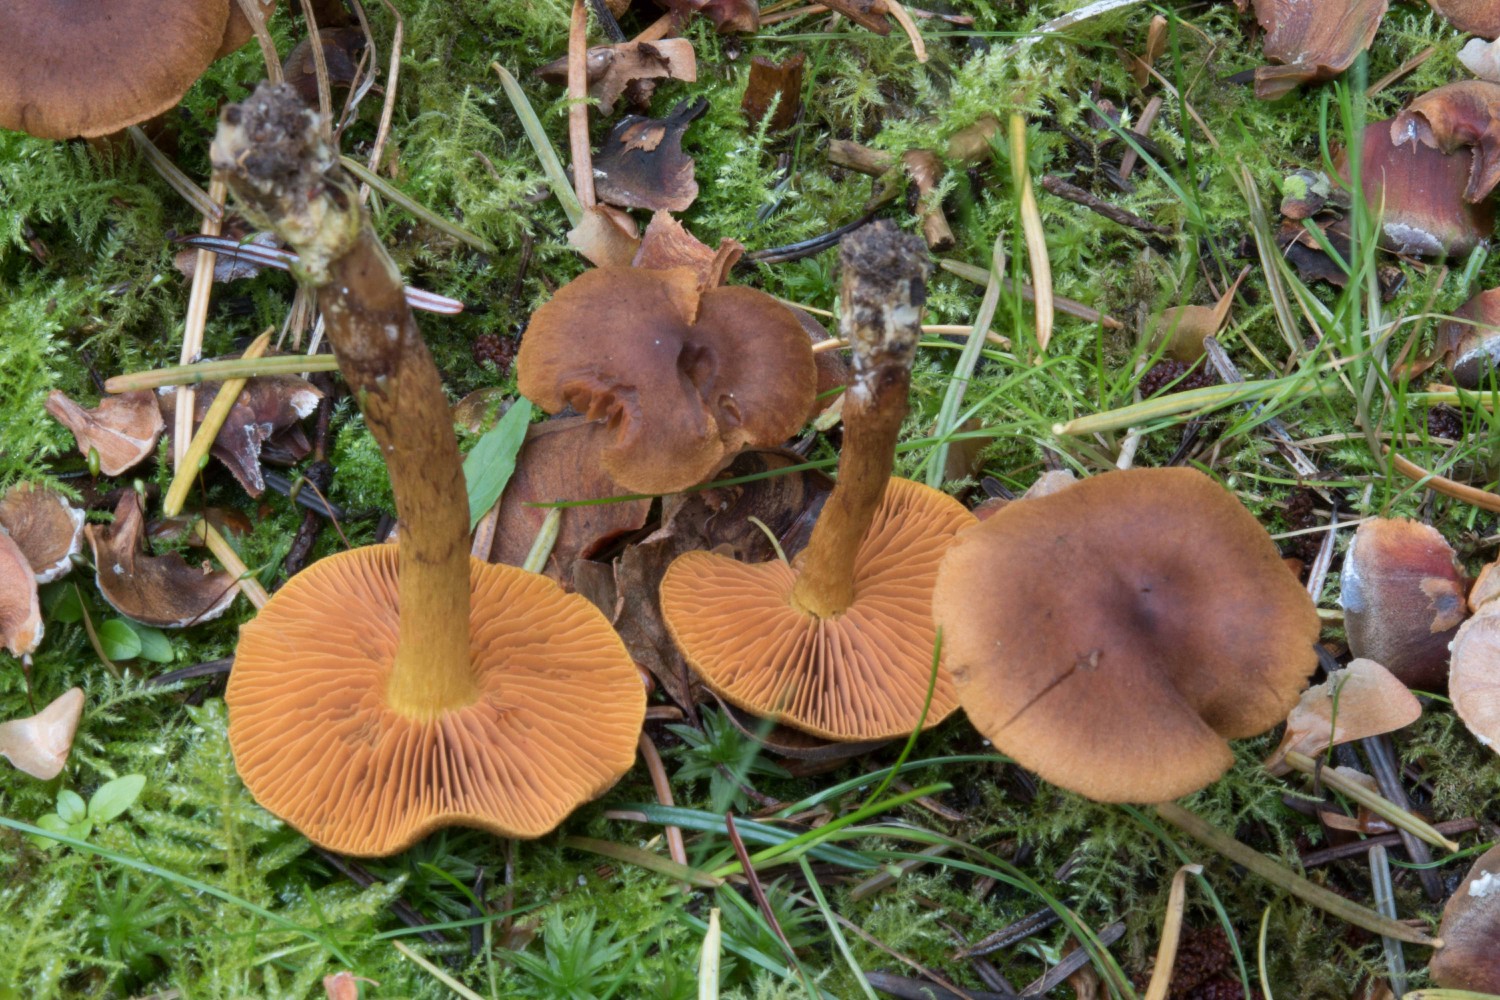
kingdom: Fungi
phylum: Basidiomycota
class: Agaricomycetes
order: Agaricales
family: Cortinariaceae
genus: Cortinarius
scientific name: Cortinarius malicorius
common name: grønkødet slørhat
